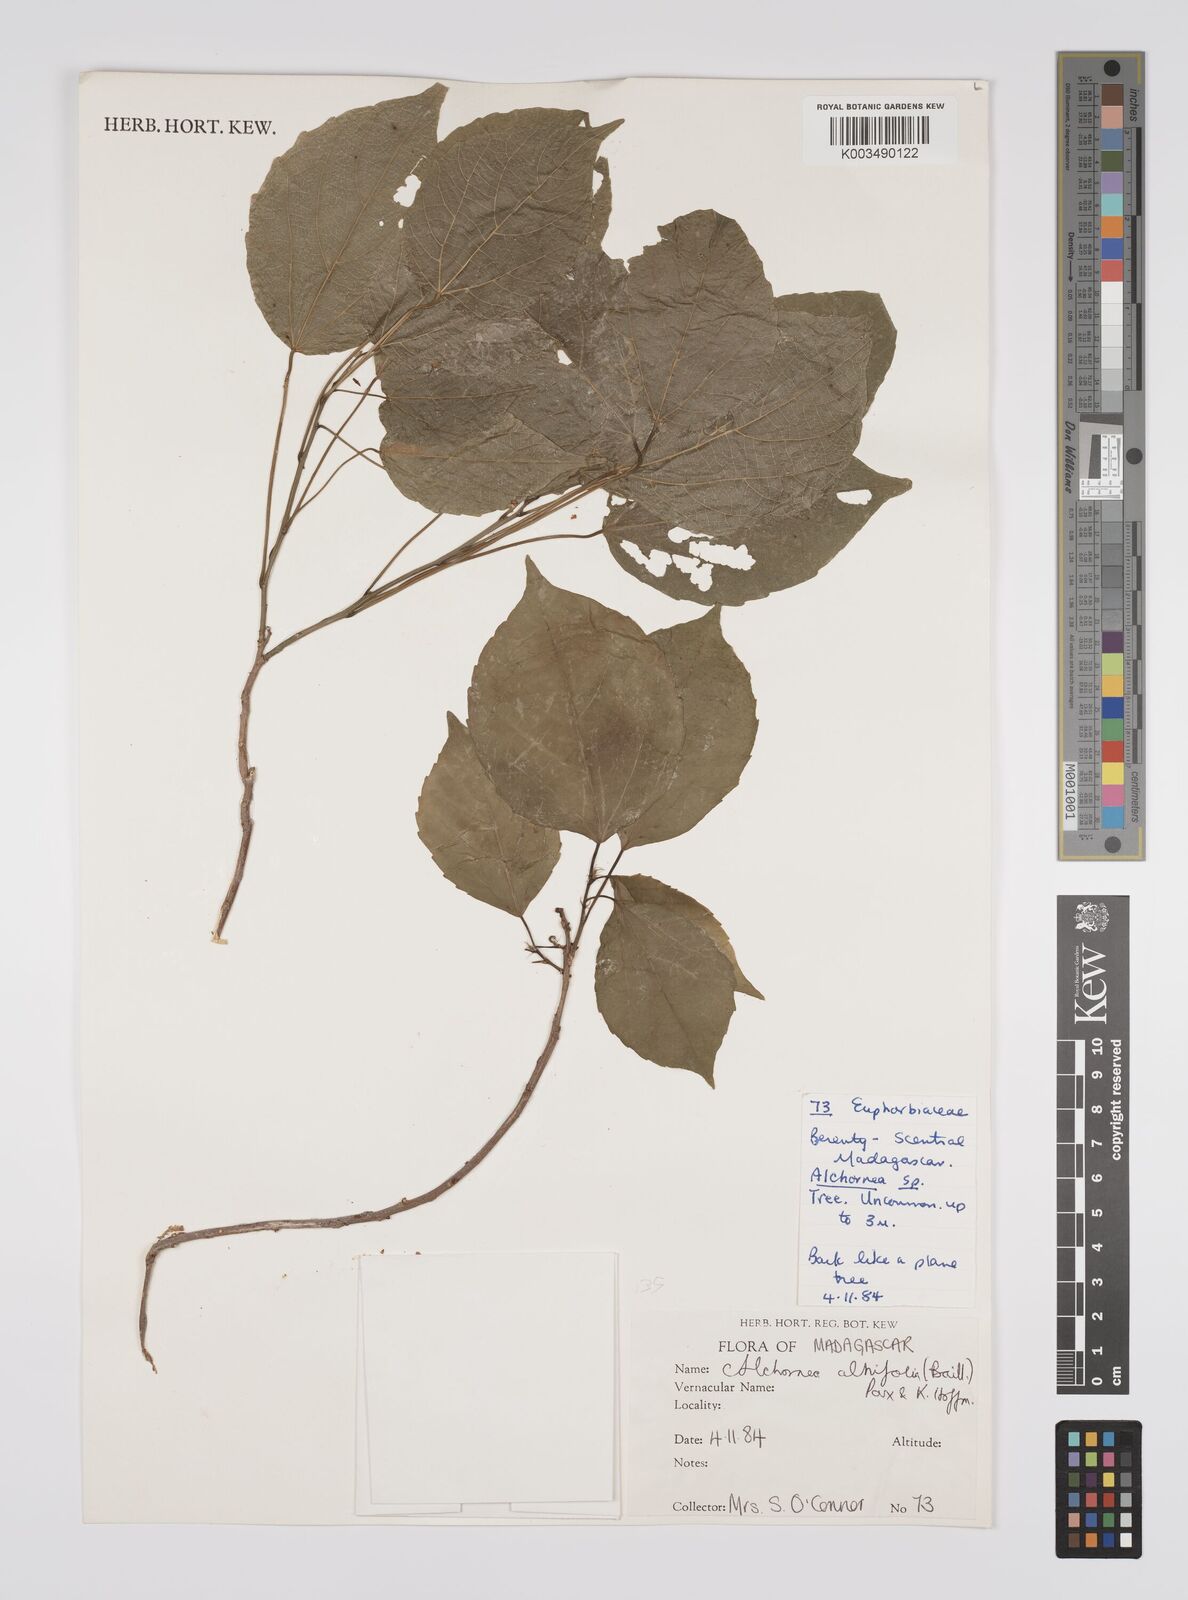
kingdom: Plantae
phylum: Tracheophyta
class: Magnoliopsida
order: Malpighiales
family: Euphorbiaceae
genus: Alchornea
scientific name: Alchornea alnifolia
